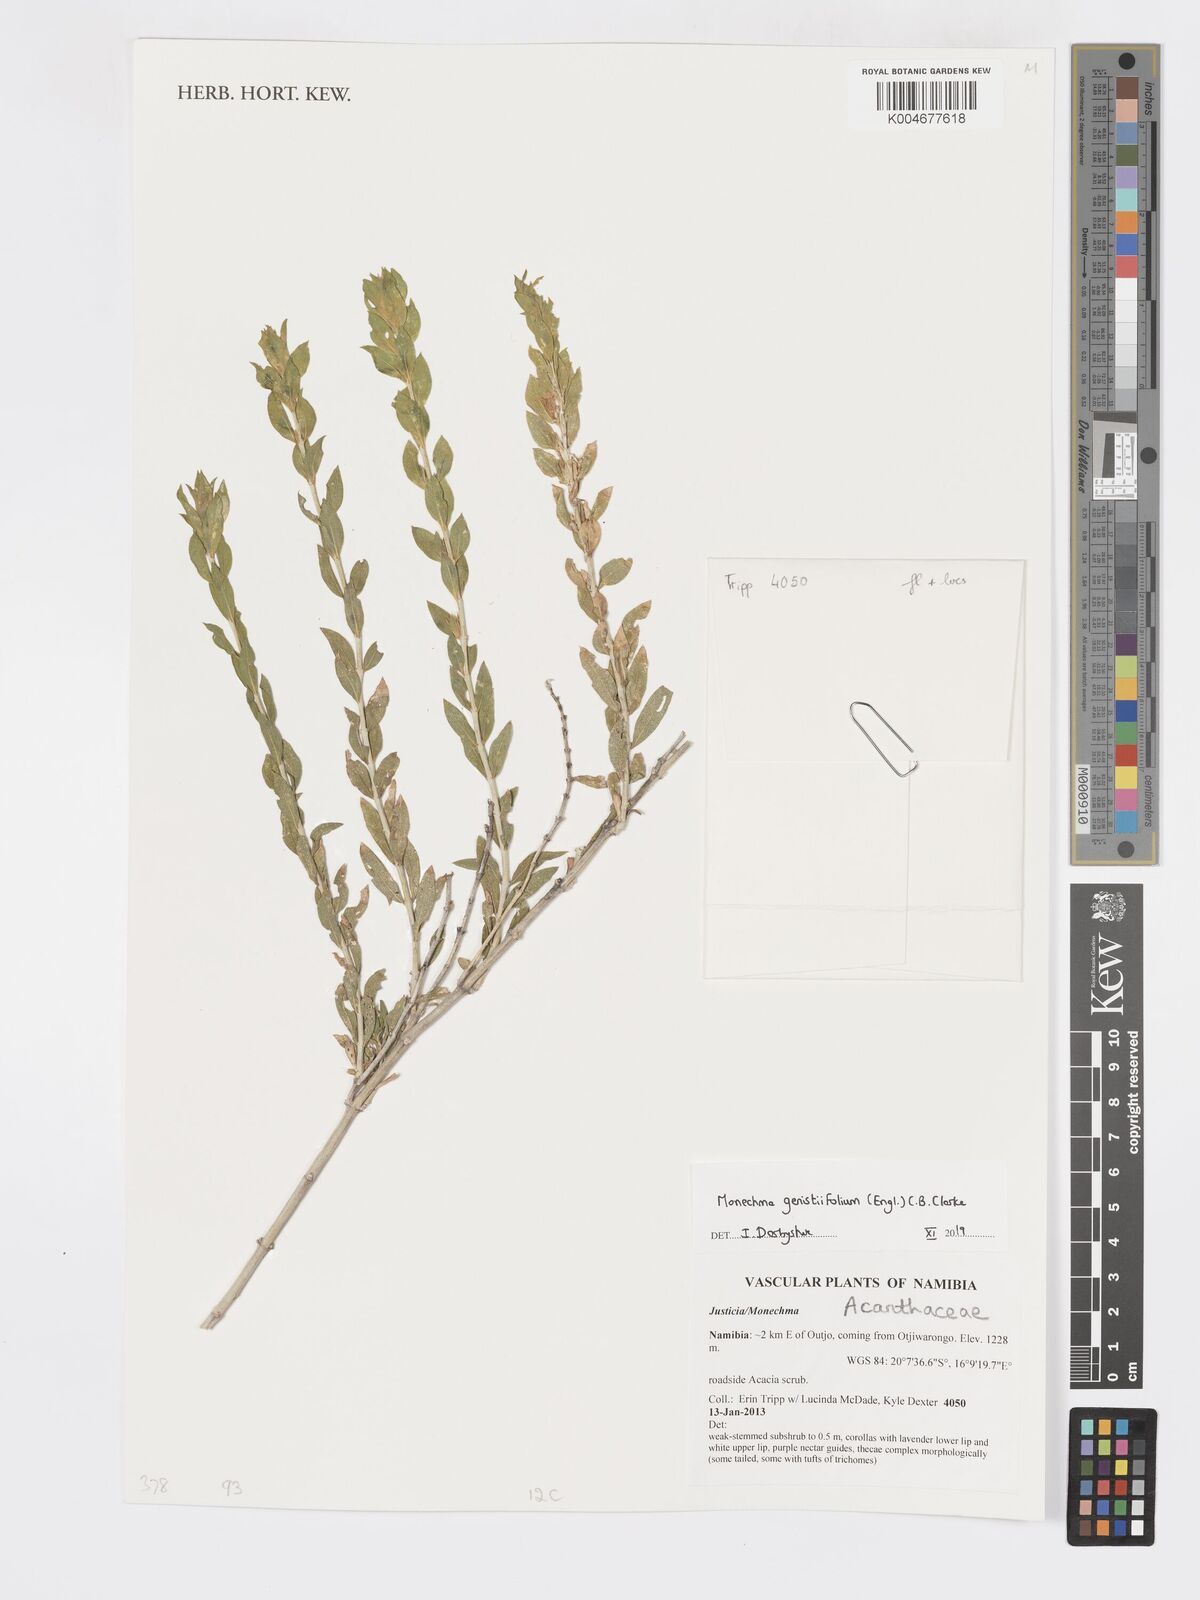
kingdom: Plantae
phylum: Tracheophyta
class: Magnoliopsida
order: Lamiales
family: Acanthaceae
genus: Pogonospermum
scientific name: Pogonospermum
